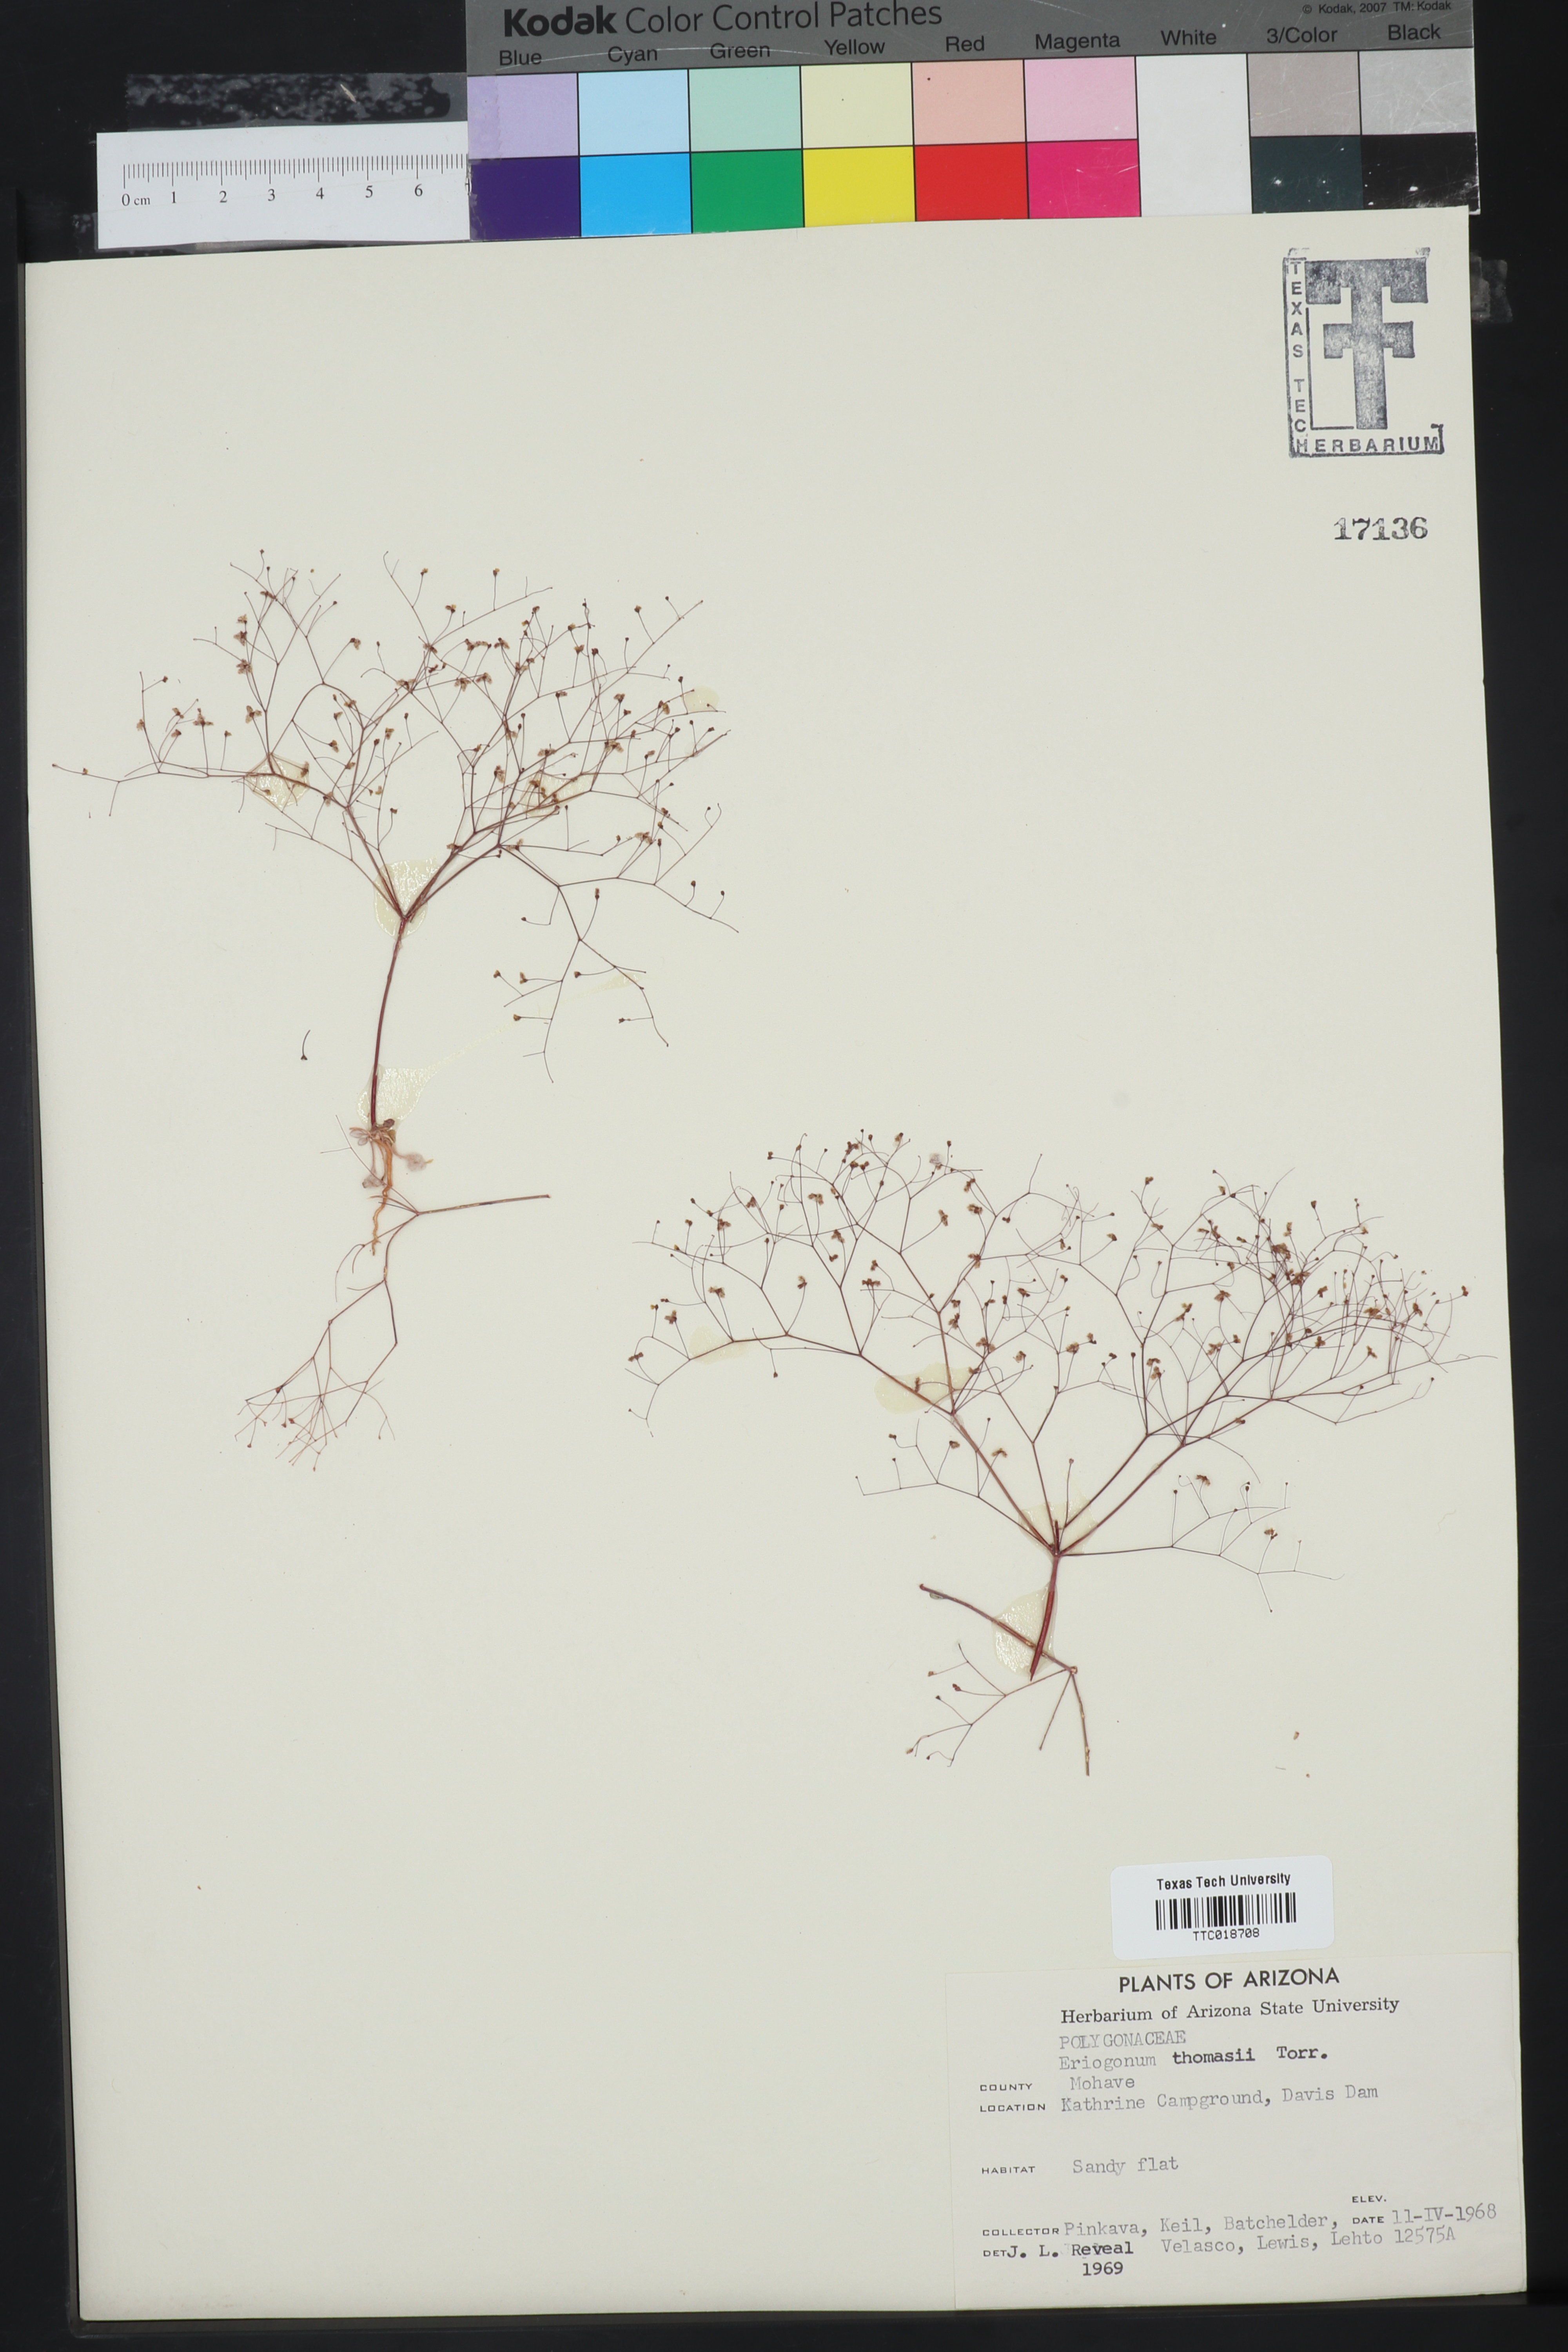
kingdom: Plantae
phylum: Tracheophyta
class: Magnoliopsida
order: Caryophyllales
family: Polygonaceae
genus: Eriogonum
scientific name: Eriogonum thomasii
